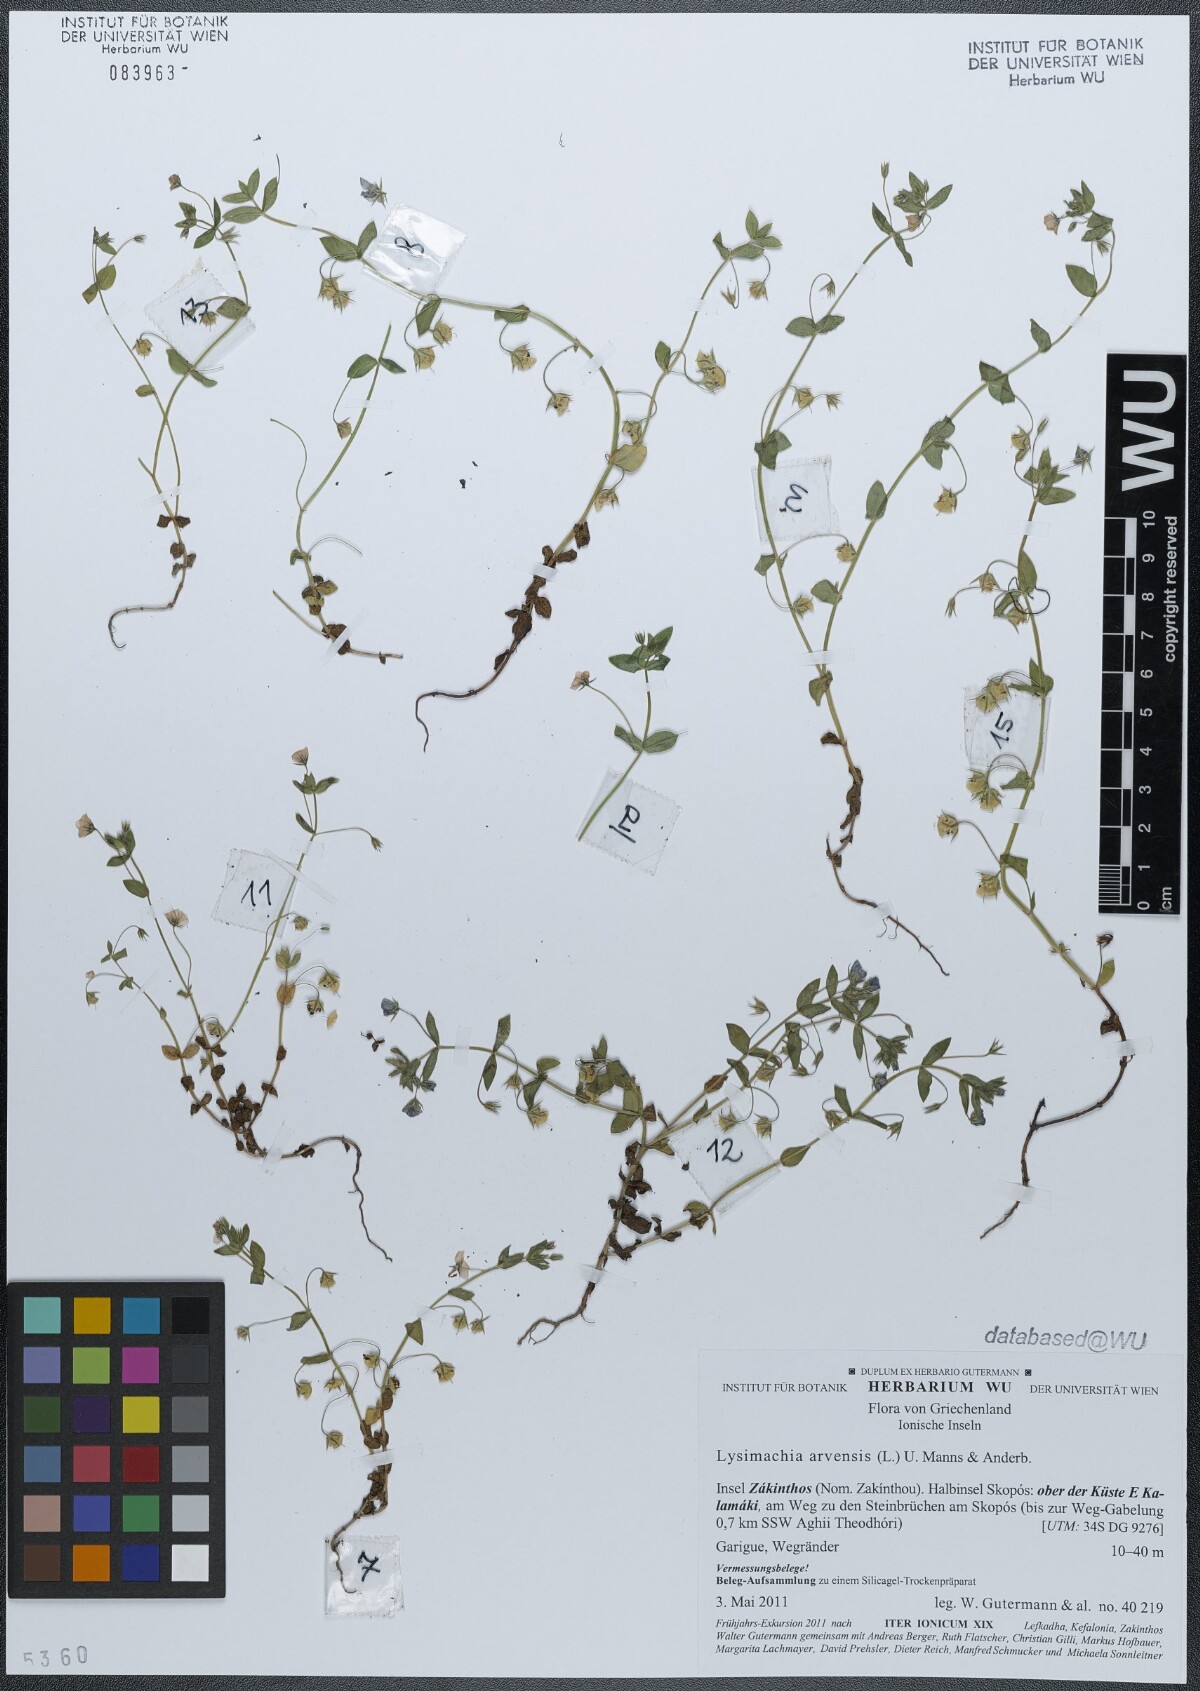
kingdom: Plantae
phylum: Tracheophyta
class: Magnoliopsida
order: Ericales
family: Primulaceae
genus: Lysimachia
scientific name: Lysimachia arvensis
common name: Scarlet pimpernel
